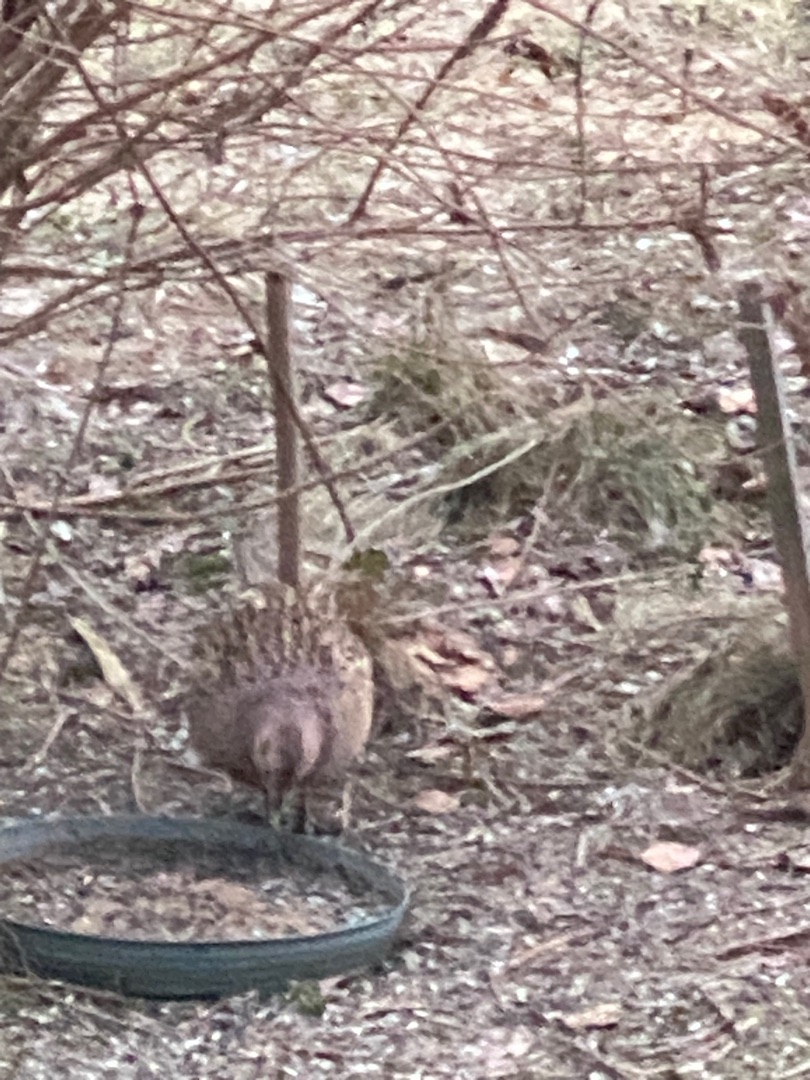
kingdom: Animalia
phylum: Chordata
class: Aves
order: Galliformes
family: Phasianidae
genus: Phasianus
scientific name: Phasianus colchicus
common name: Fasan
